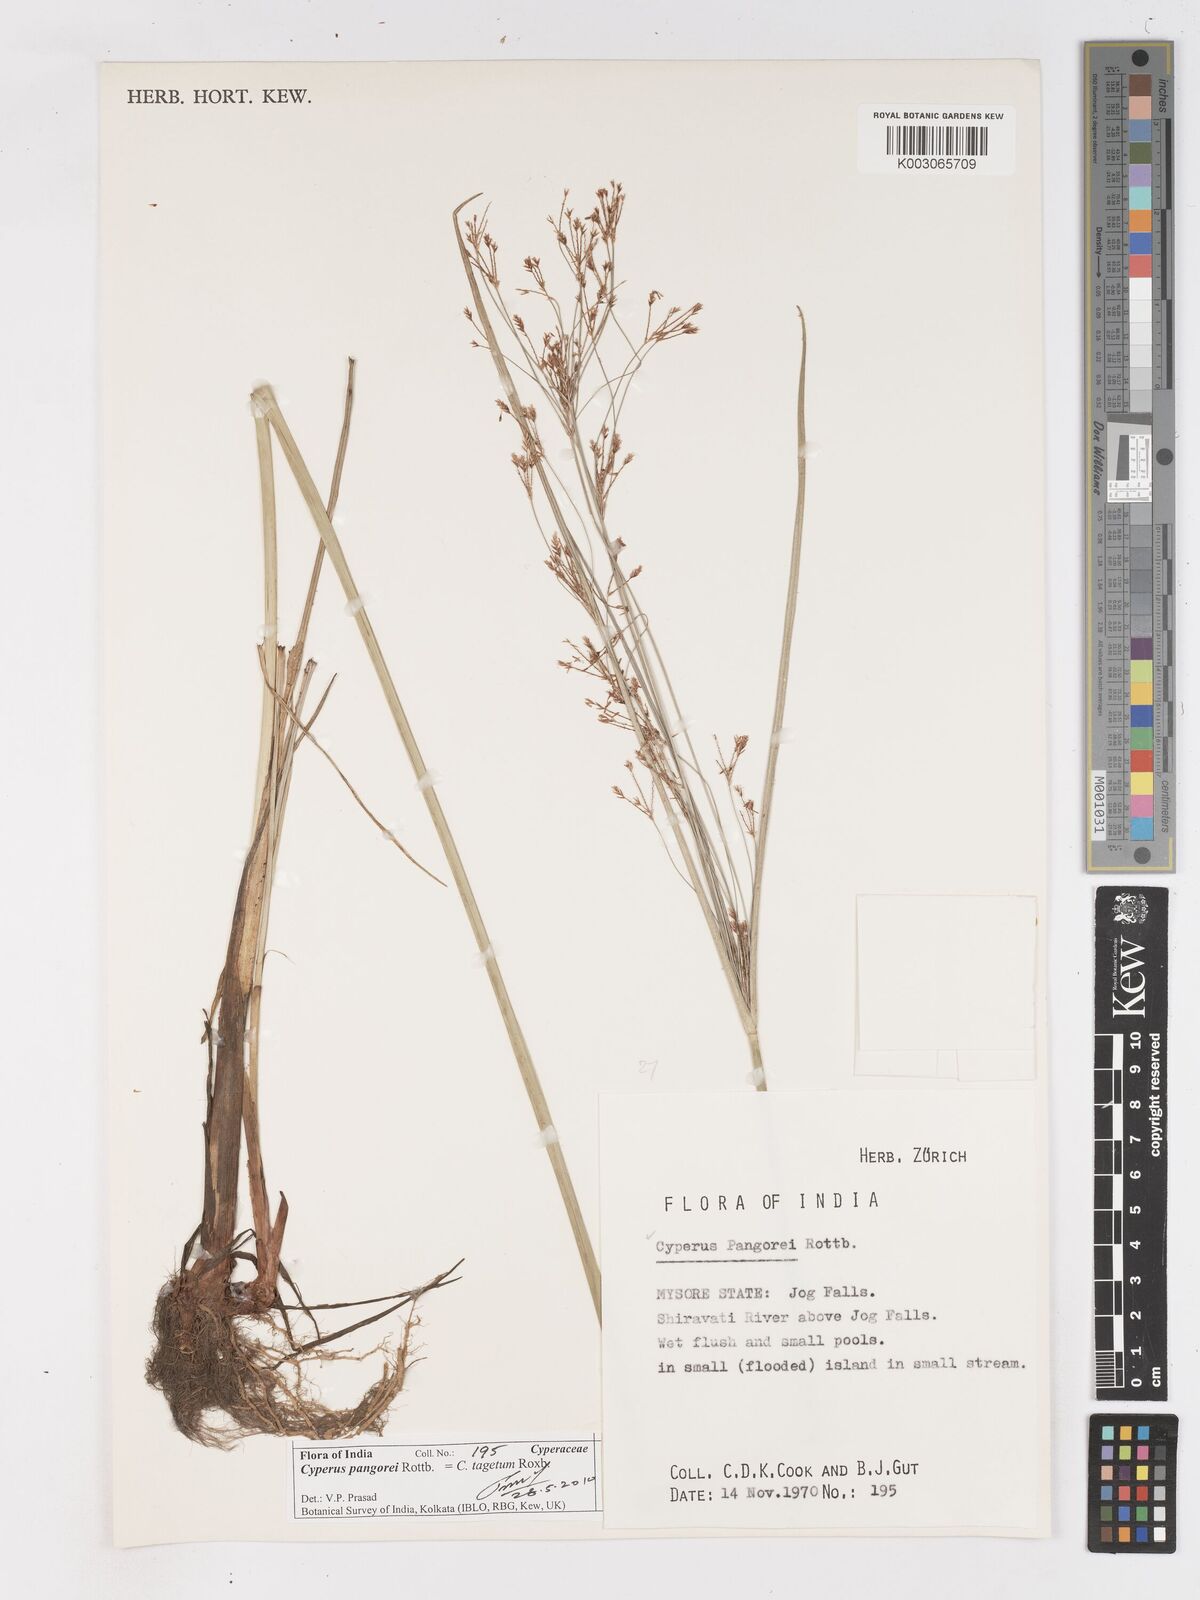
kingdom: Plantae
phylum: Tracheophyta
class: Liliopsida
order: Poales
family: Cyperaceae
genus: Cyperus
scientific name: Cyperus pangorei
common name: Mat sedge
